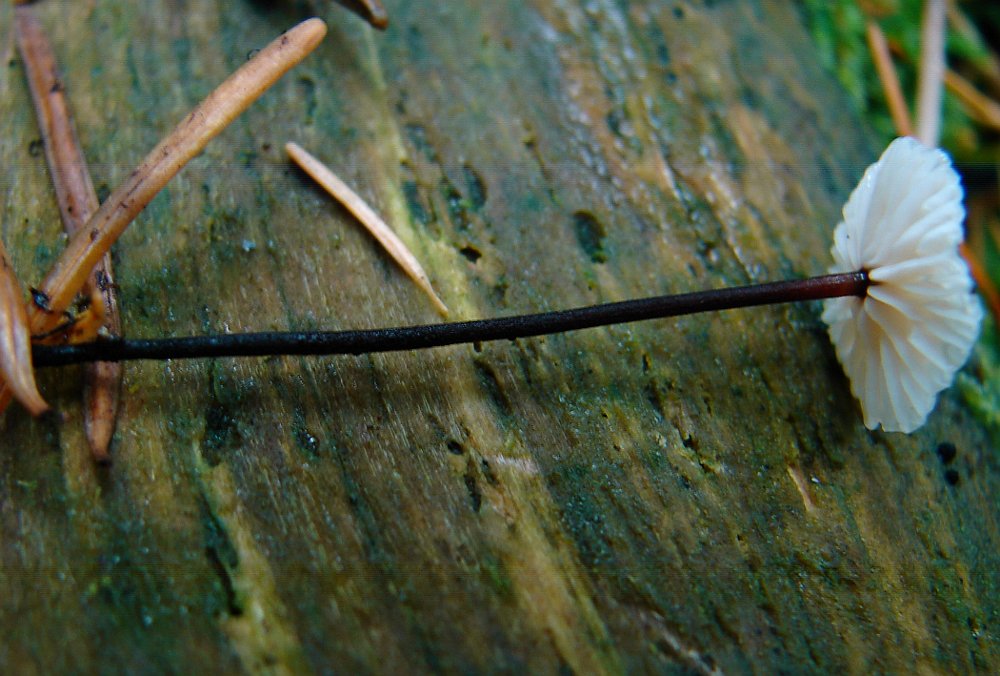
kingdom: Fungi
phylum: Basidiomycota
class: Agaricomycetes
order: Agaricales
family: Omphalotaceae
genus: Paragymnopus
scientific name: Paragymnopus perforans
